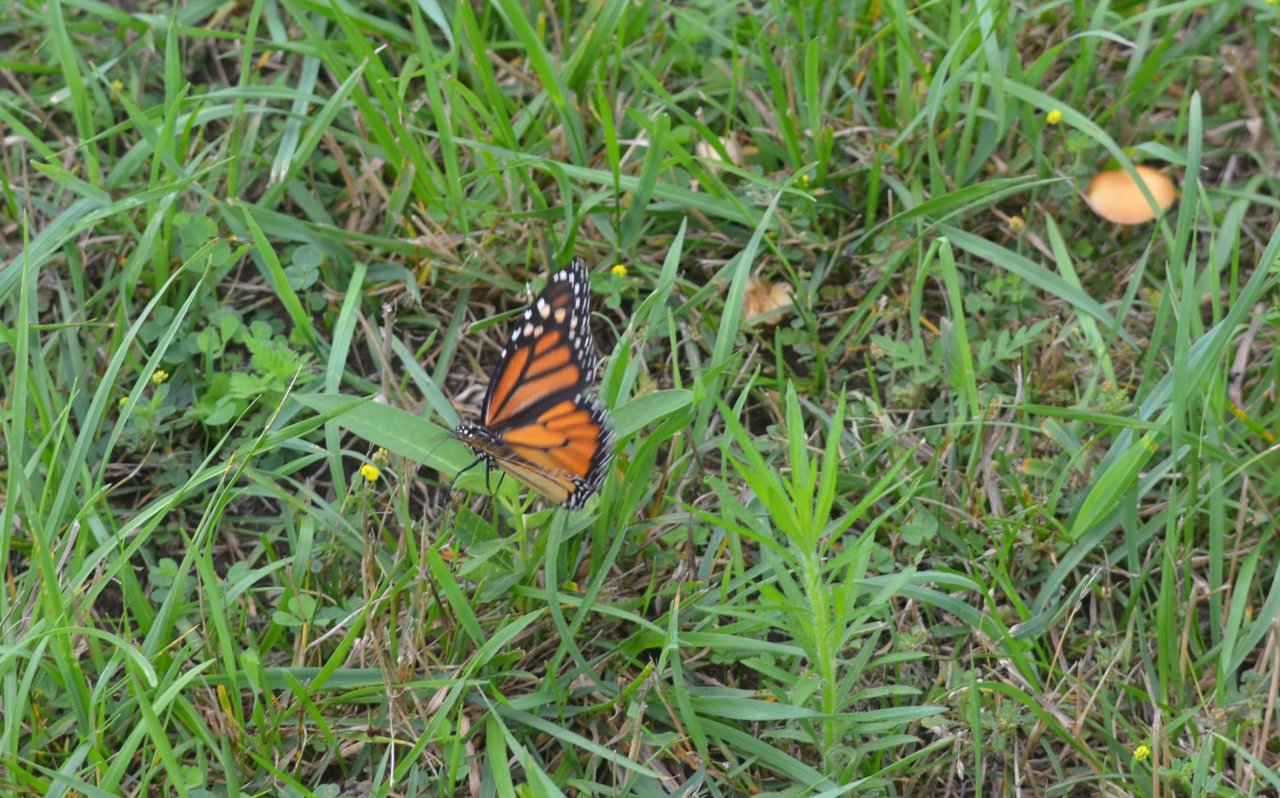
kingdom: Animalia
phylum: Arthropoda
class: Insecta
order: Lepidoptera
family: Nymphalidae
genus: Danaus
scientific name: Danaus plexippus
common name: Monarch
